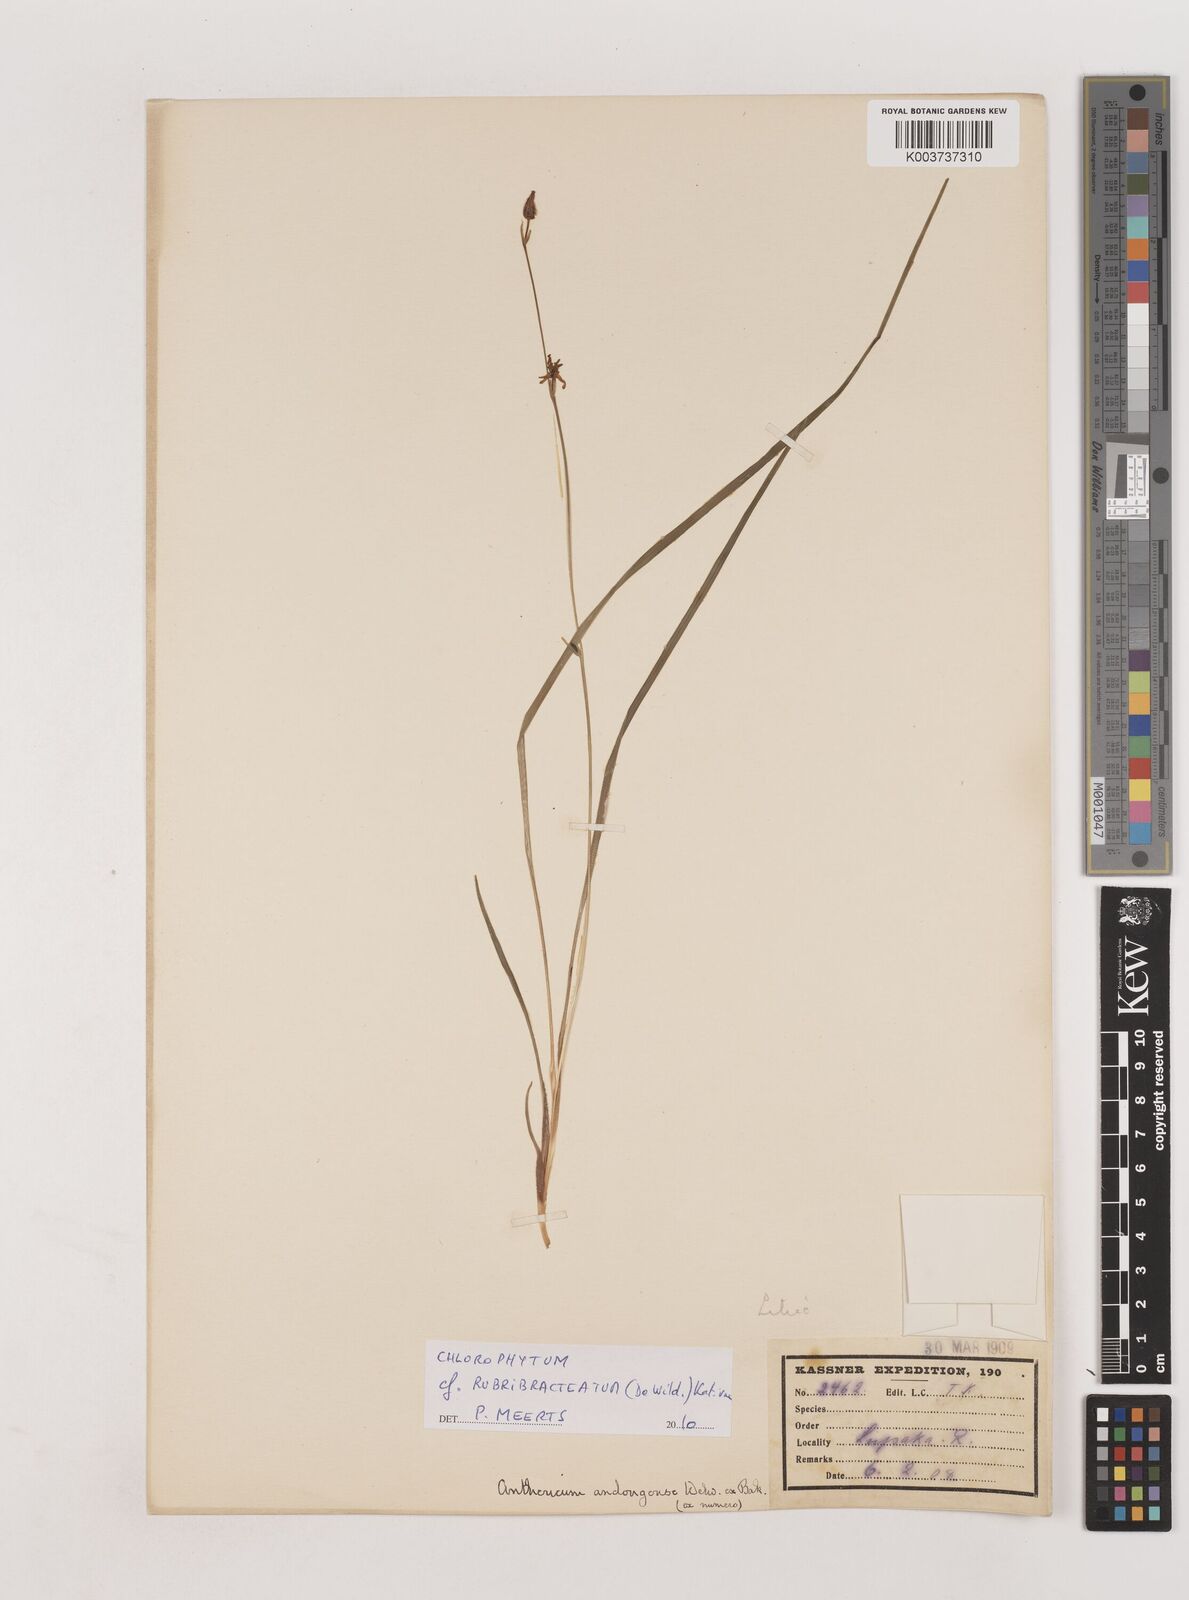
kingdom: Plantae
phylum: Tracheophyta
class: Liliopsida
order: Asparagales
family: Asparagaceae
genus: Chlorophytum
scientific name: Chlorophytum rubribracteatum
